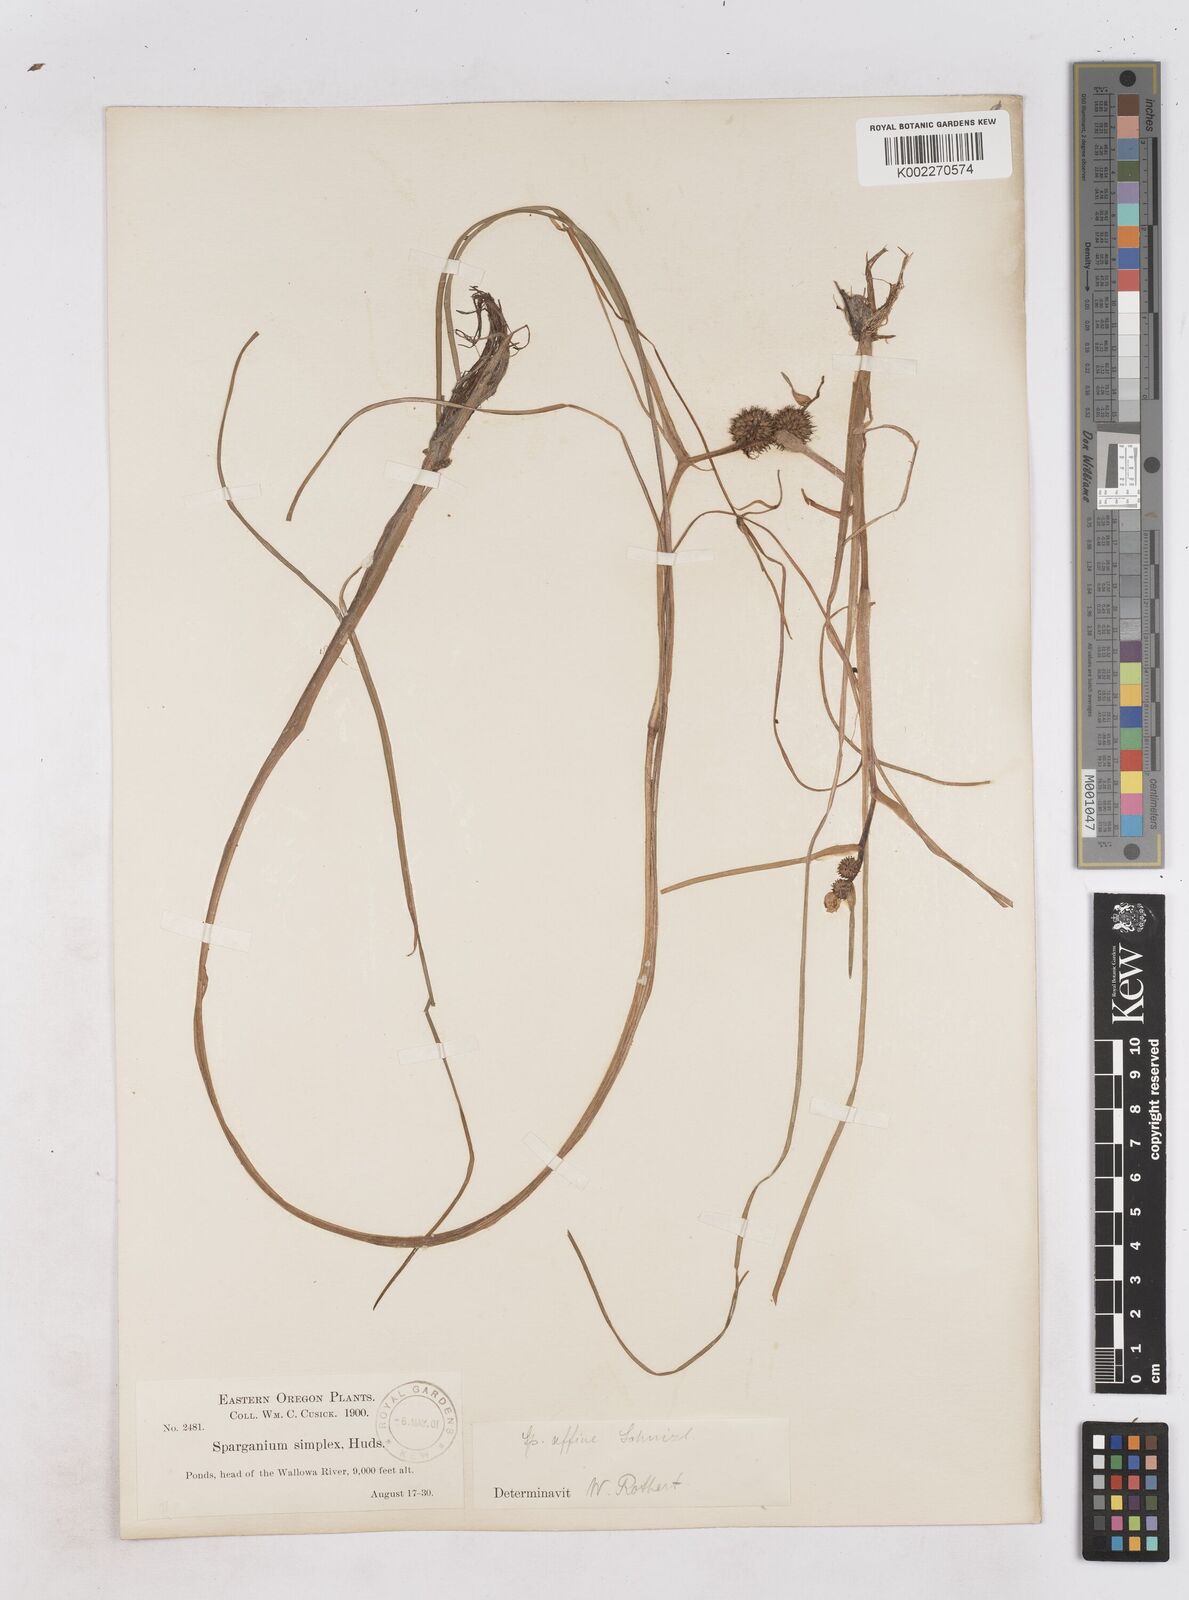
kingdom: Plantae
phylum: Tracheophyta
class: Liliopsida
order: Poales
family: Typhaceae
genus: Sparganium
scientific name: Sparganium angustifolium
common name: Floating bur-reed
